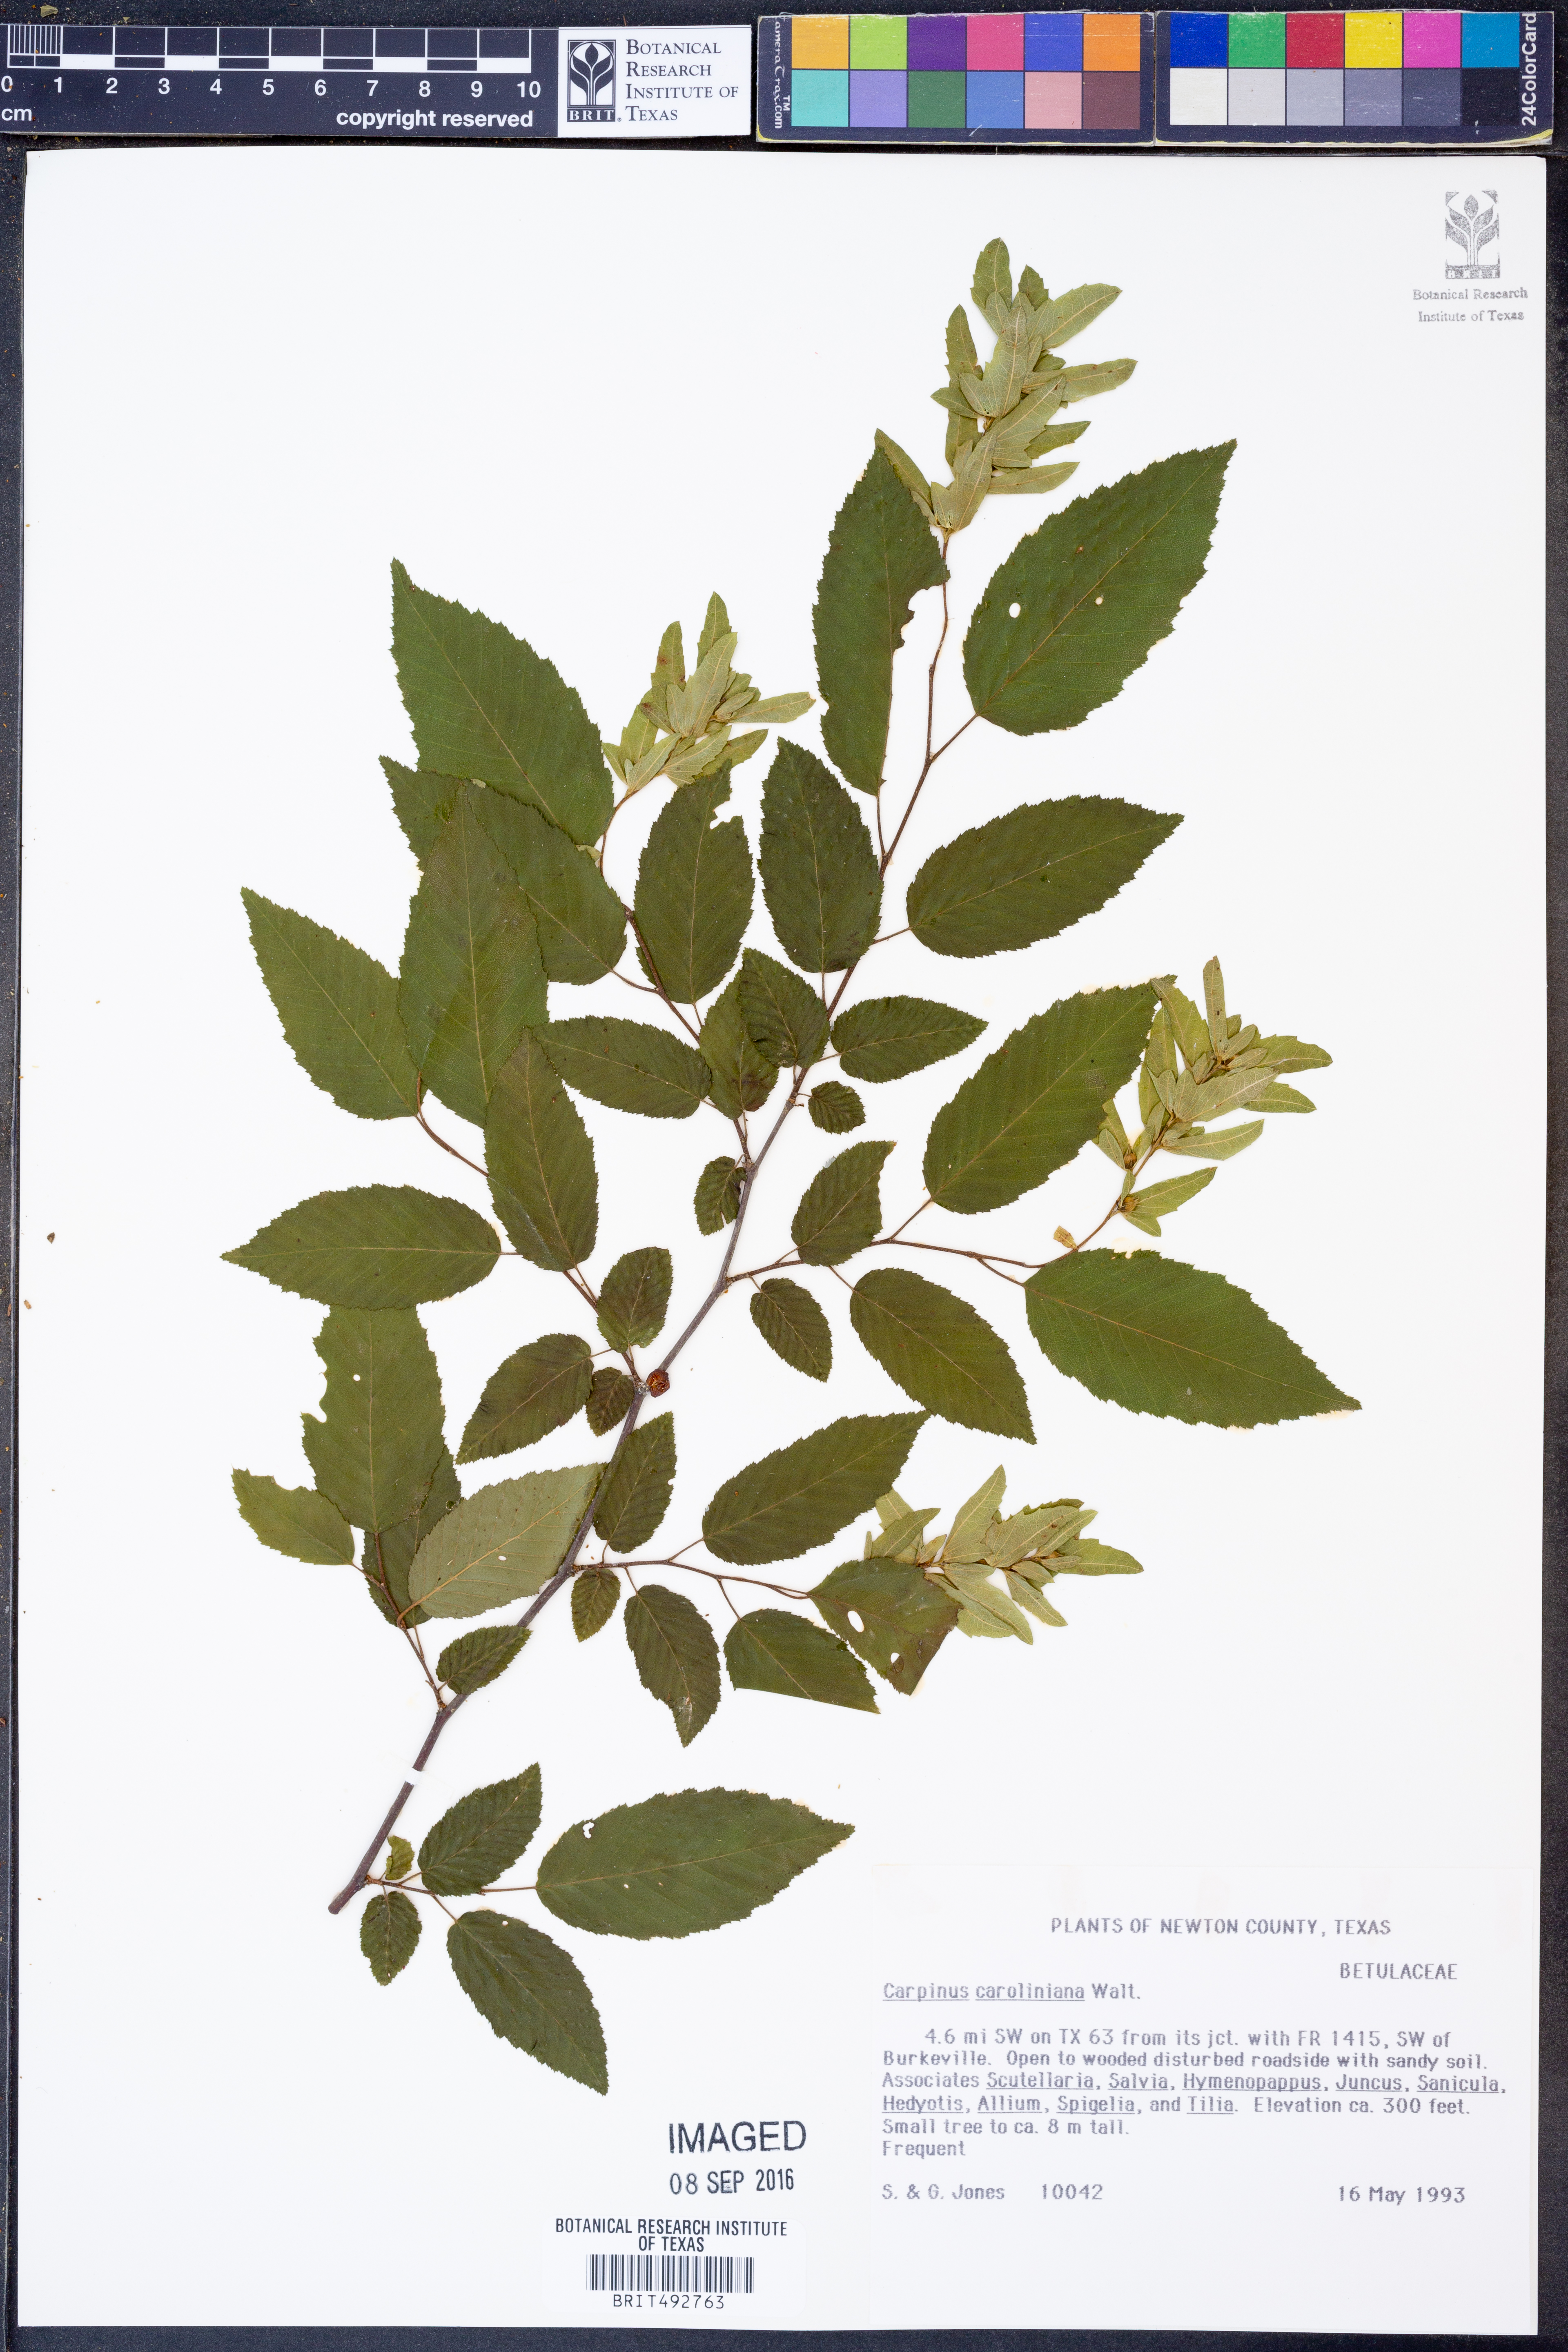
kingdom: Plantae
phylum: Tracheophyta
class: Magnoliopsida
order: Fagales
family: Betulaceae
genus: Carpinus
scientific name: Carpinus caroliniana
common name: American hornbeam
